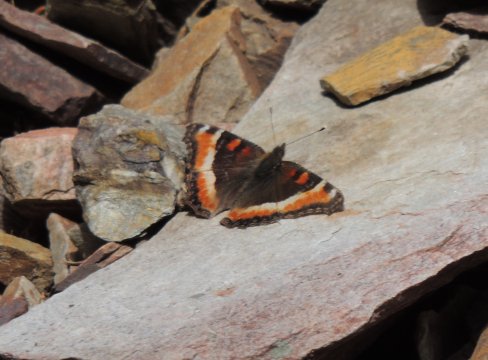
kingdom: Animalia
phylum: Arthropoda
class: Insecta
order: Lepidoptera
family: Nymphalidae
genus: Aglais
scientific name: Aglais milberti
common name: Milbert's Tortoiseshell
